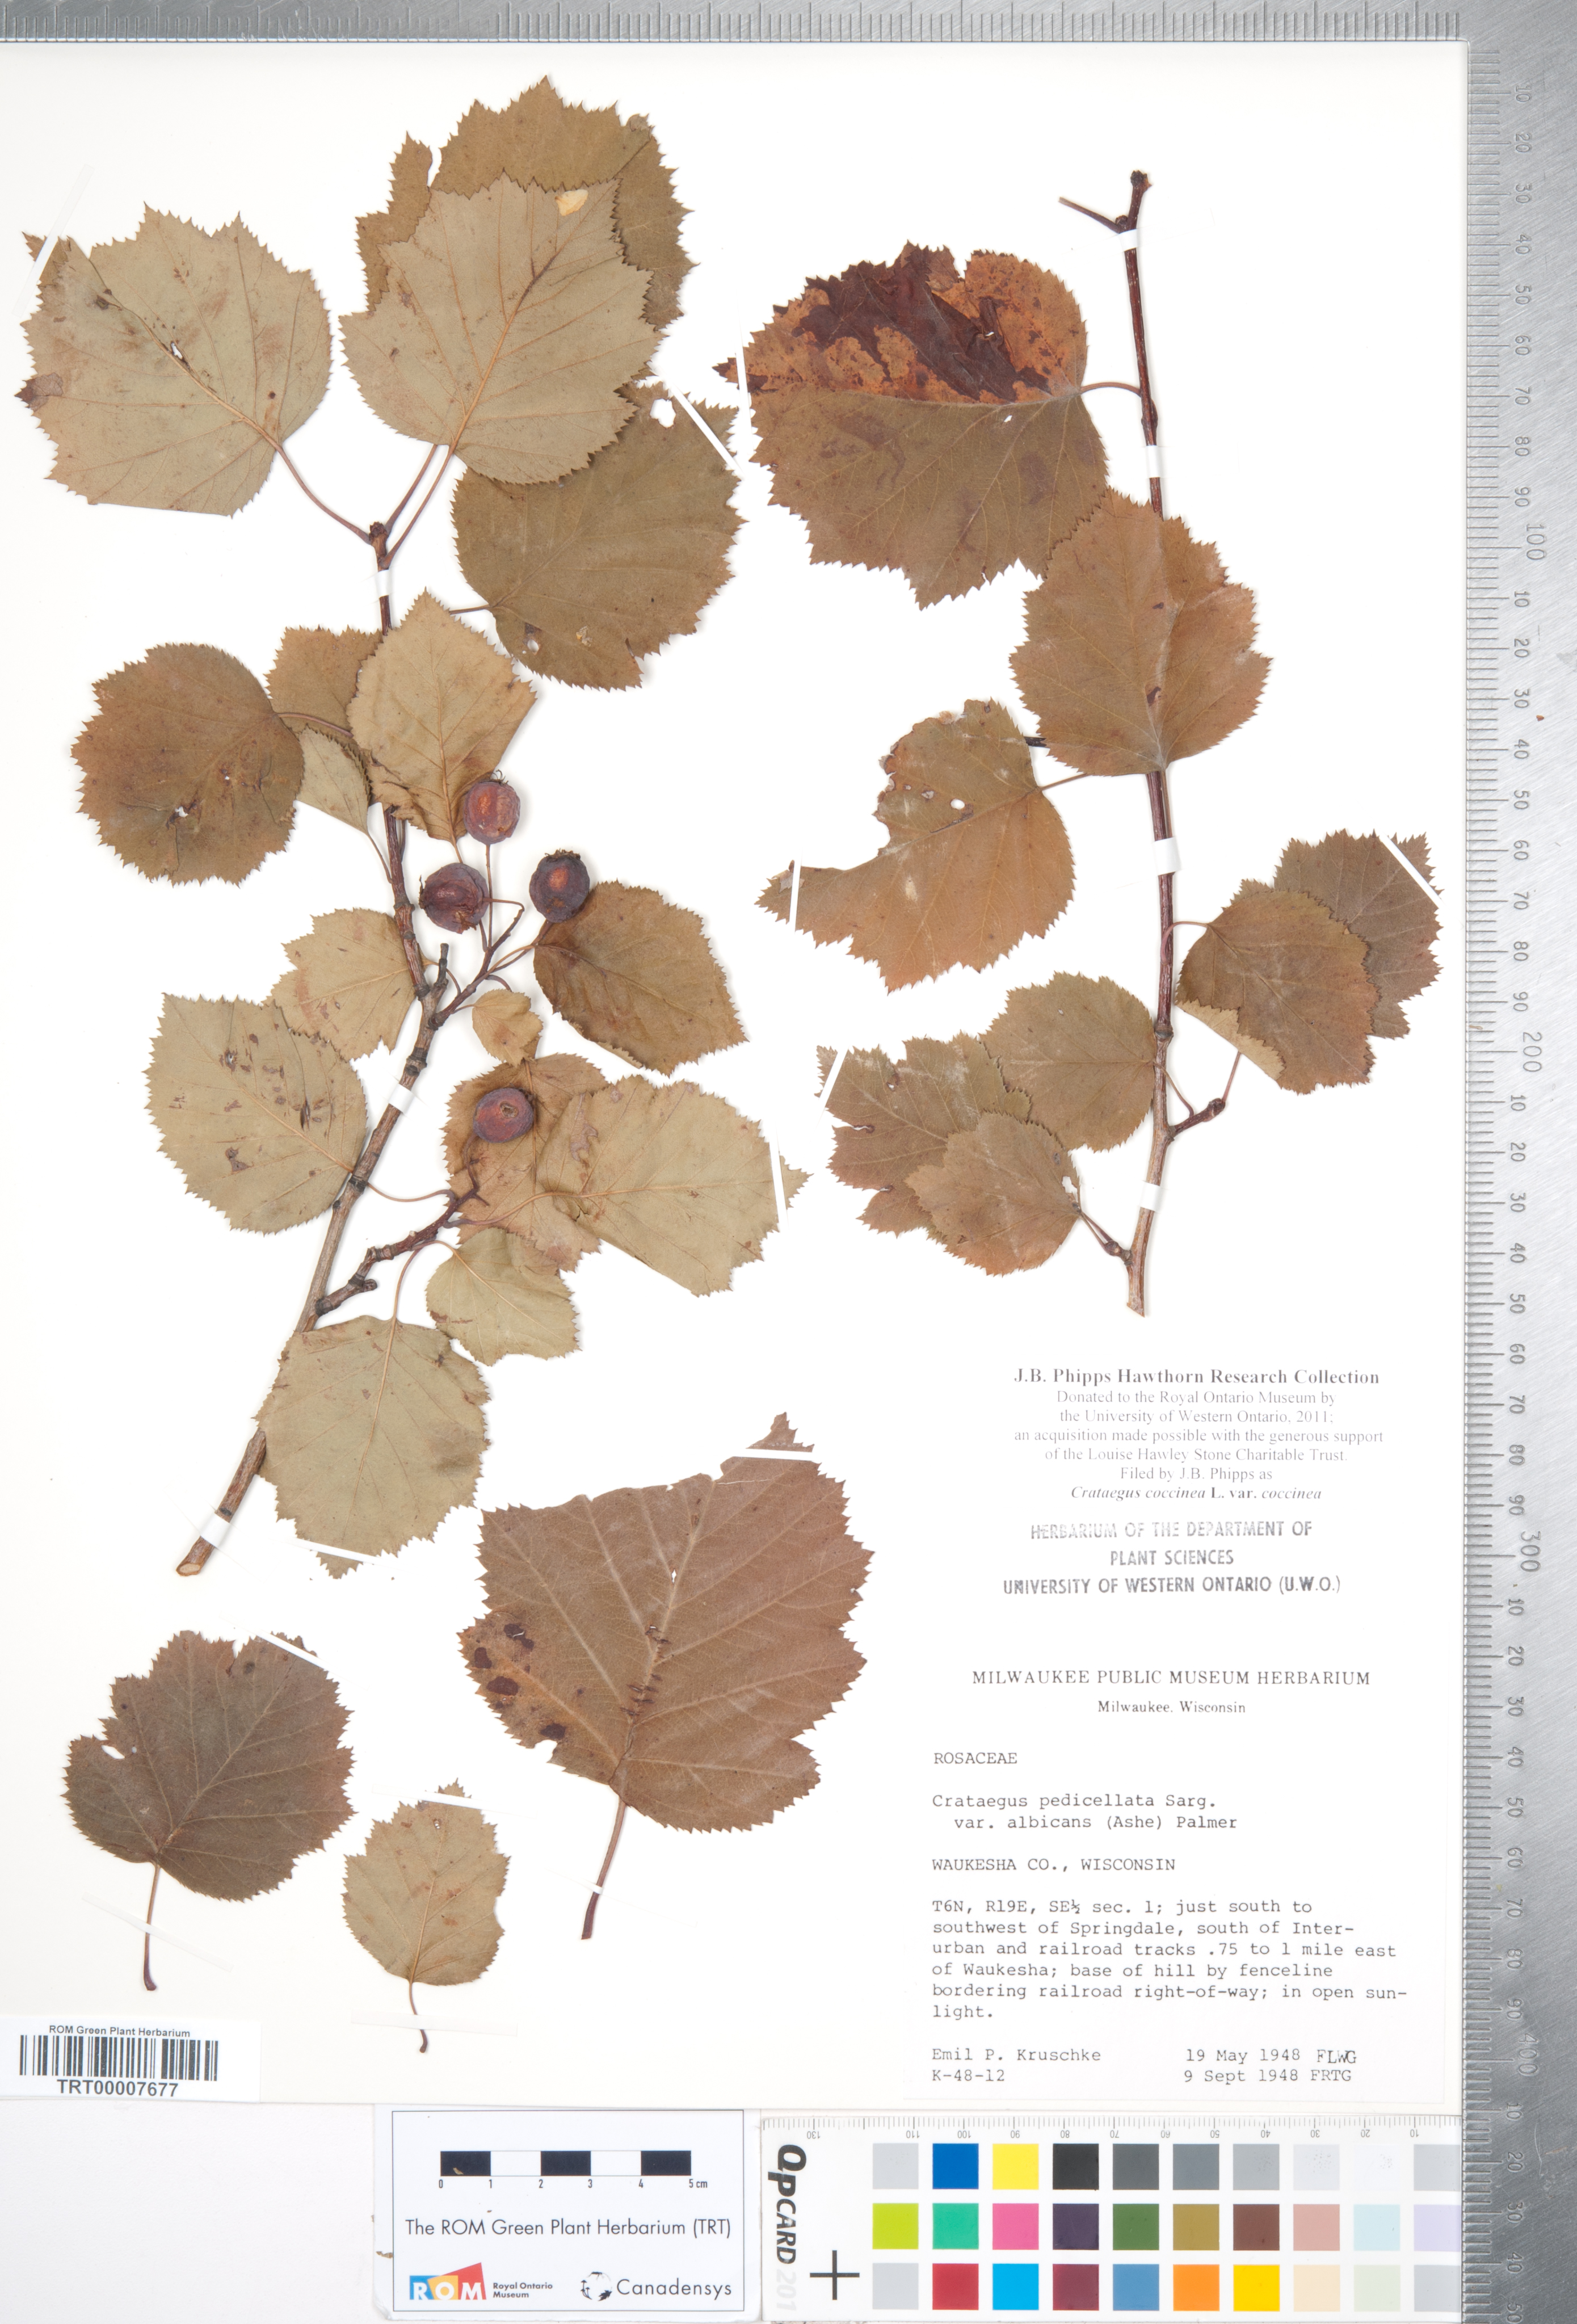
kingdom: Plantae
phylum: Tracheophyta
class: Magnoliopsida
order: Rosales
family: Rosaceae
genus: Crataegus
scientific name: Crataegus coccinea
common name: Scarlet hawthorn
